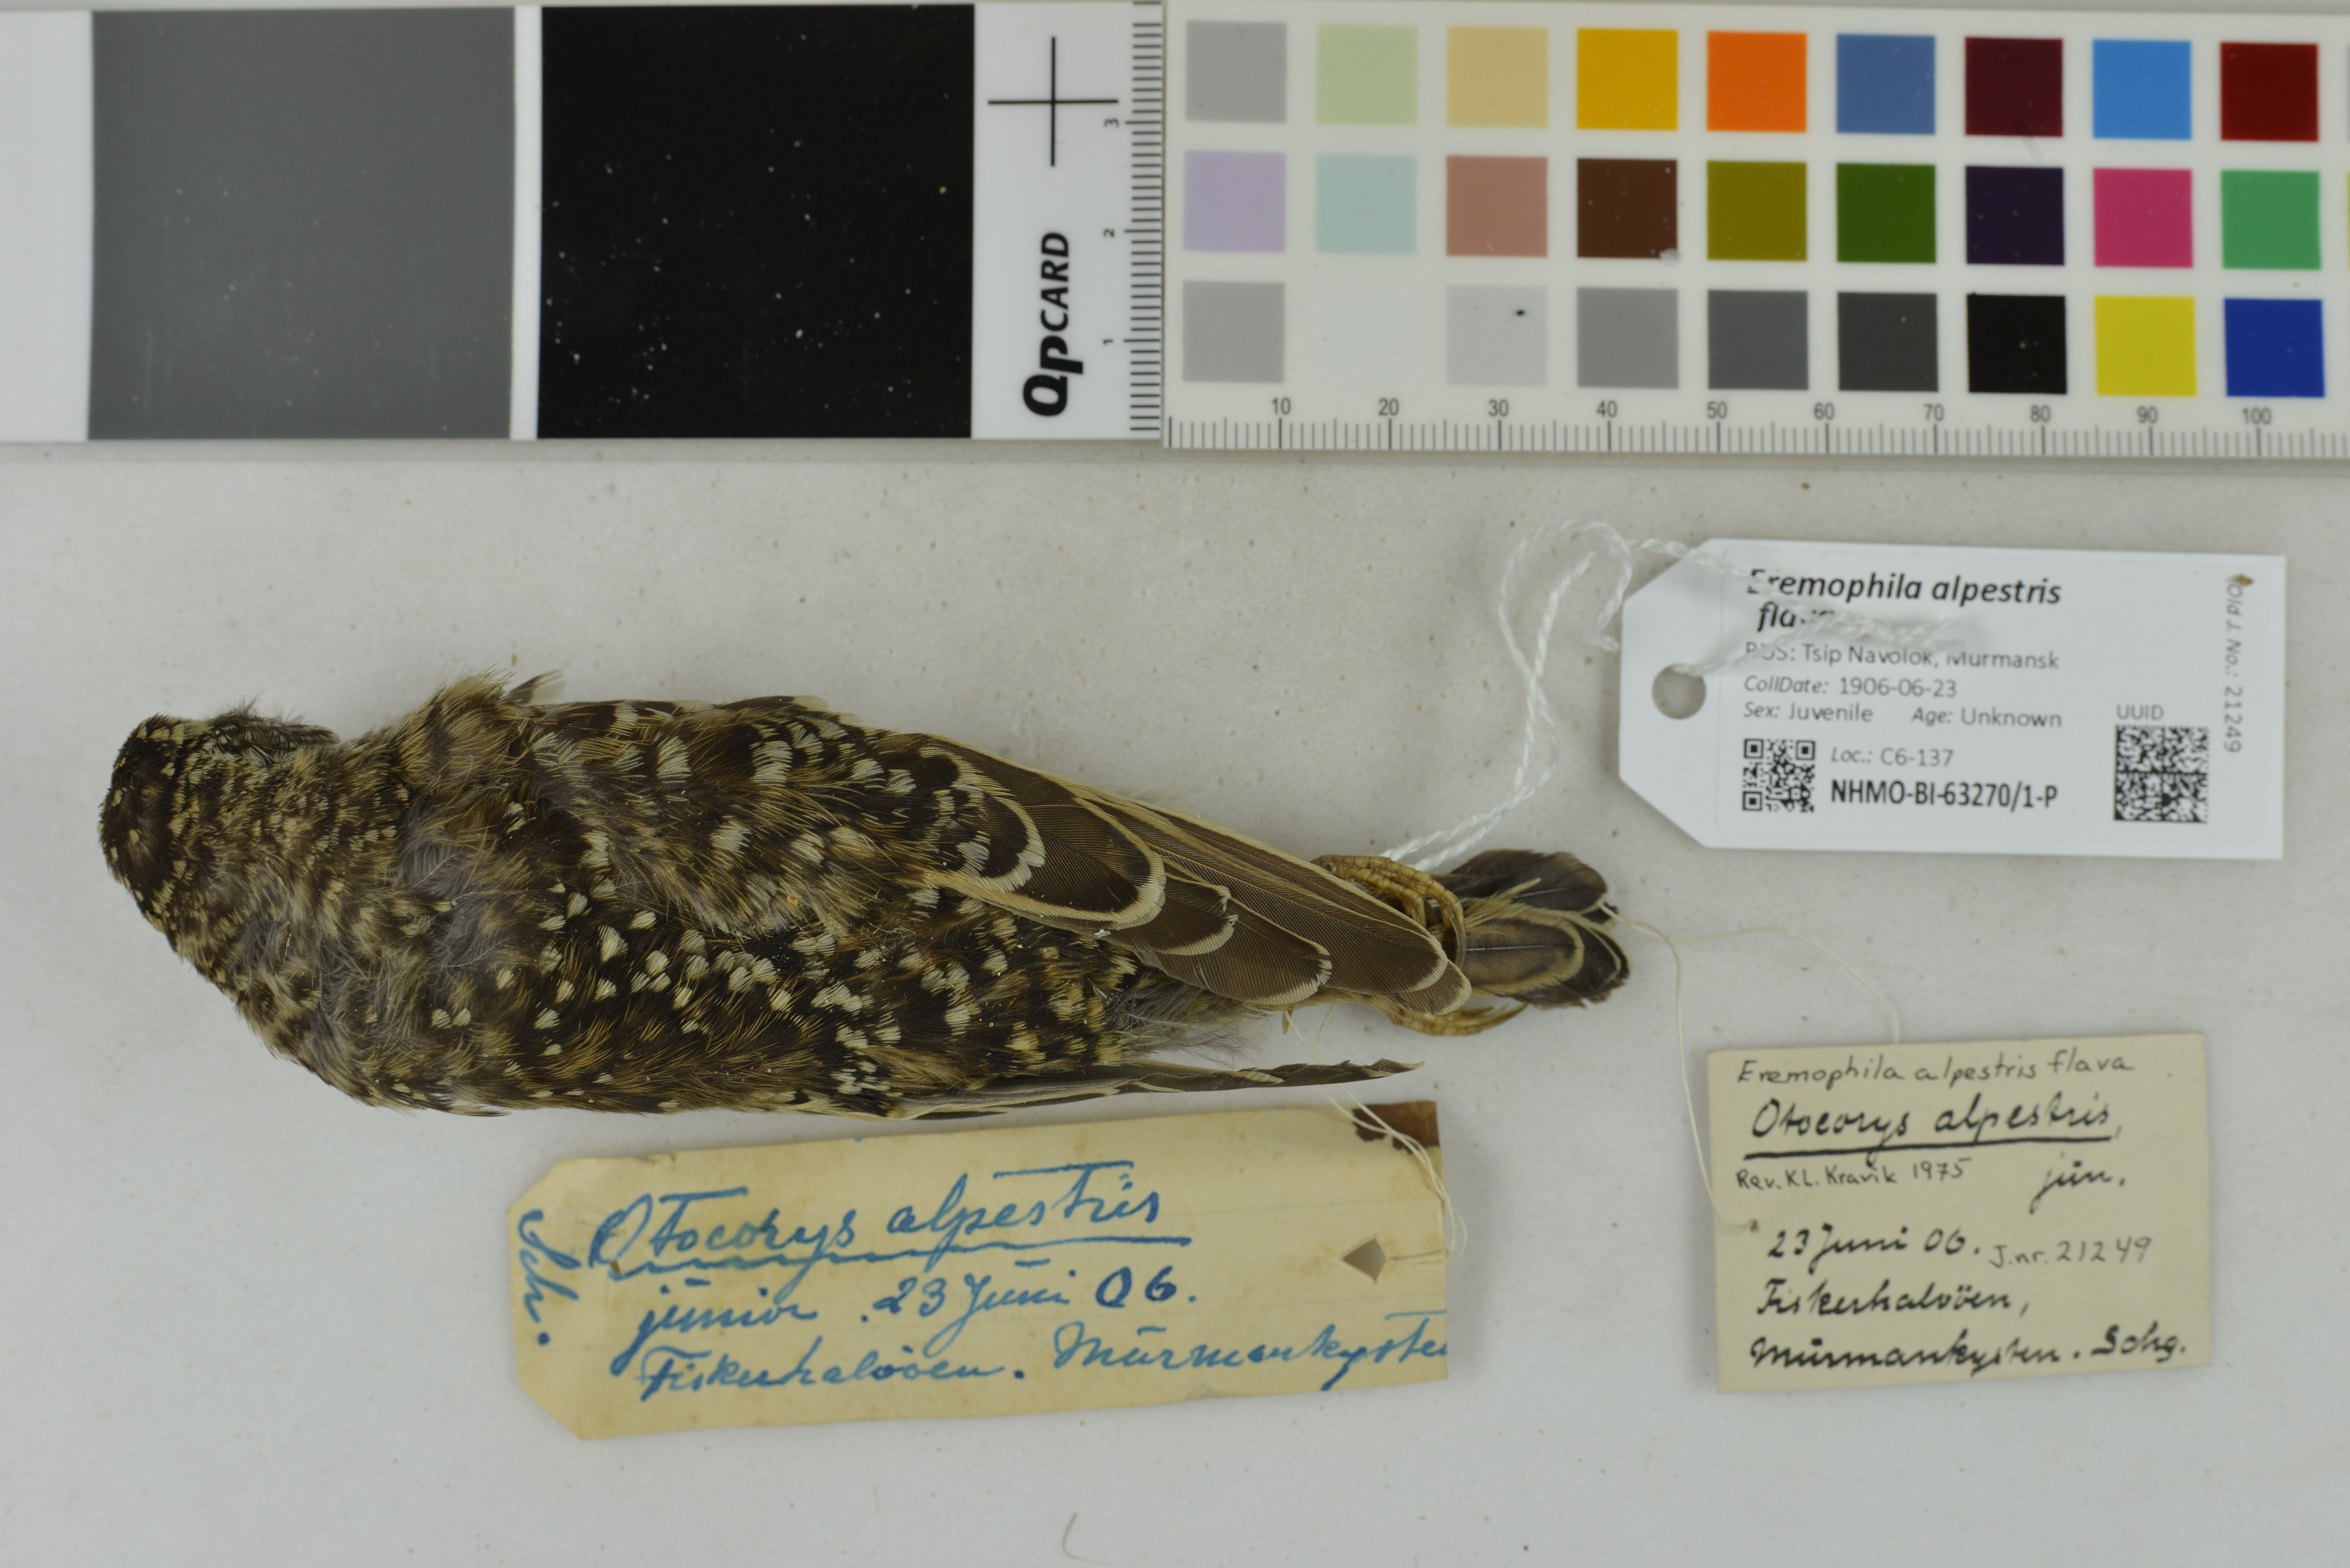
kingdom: Animalia
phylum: Chordata
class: Aves
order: Passeriformes
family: Alaudidae
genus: Eremophila
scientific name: Eremophila alpestris
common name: Horned lark
